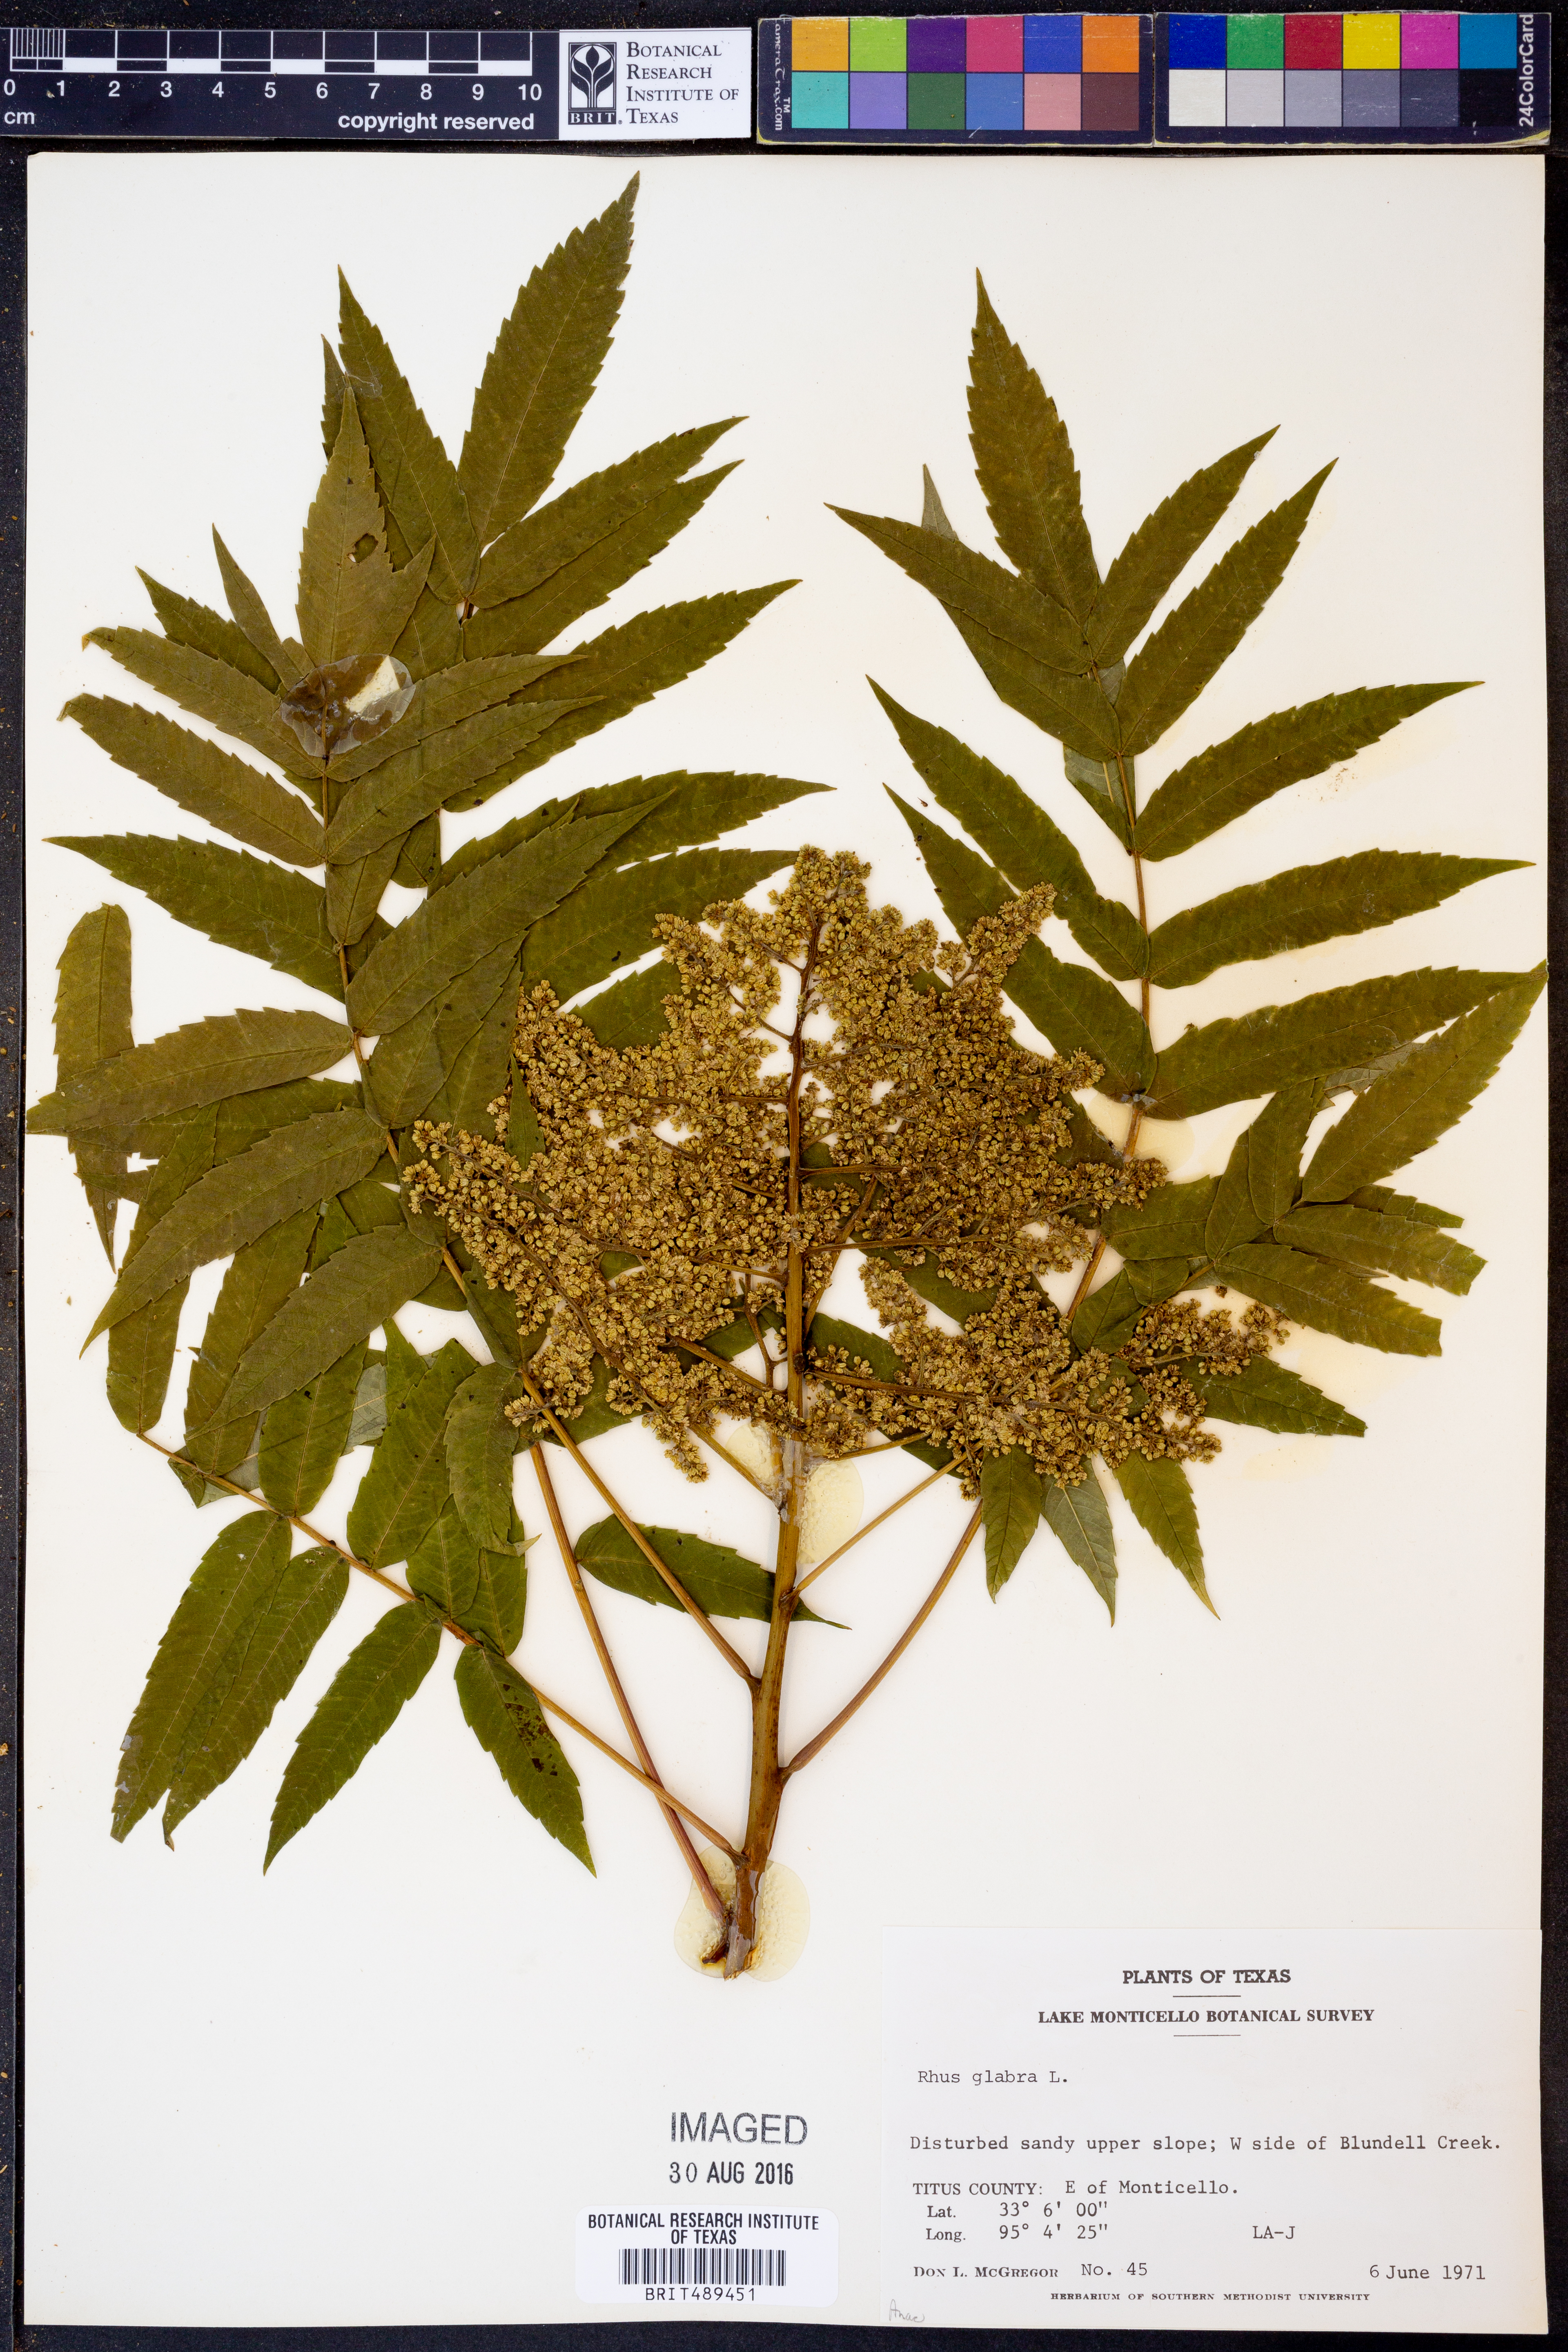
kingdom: Plantae
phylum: Tracheophyta
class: Magnoliopsida
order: Sapindales
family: Anacardiaceae
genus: Rhus
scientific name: Rhus glabra
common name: Scarlet sumac
